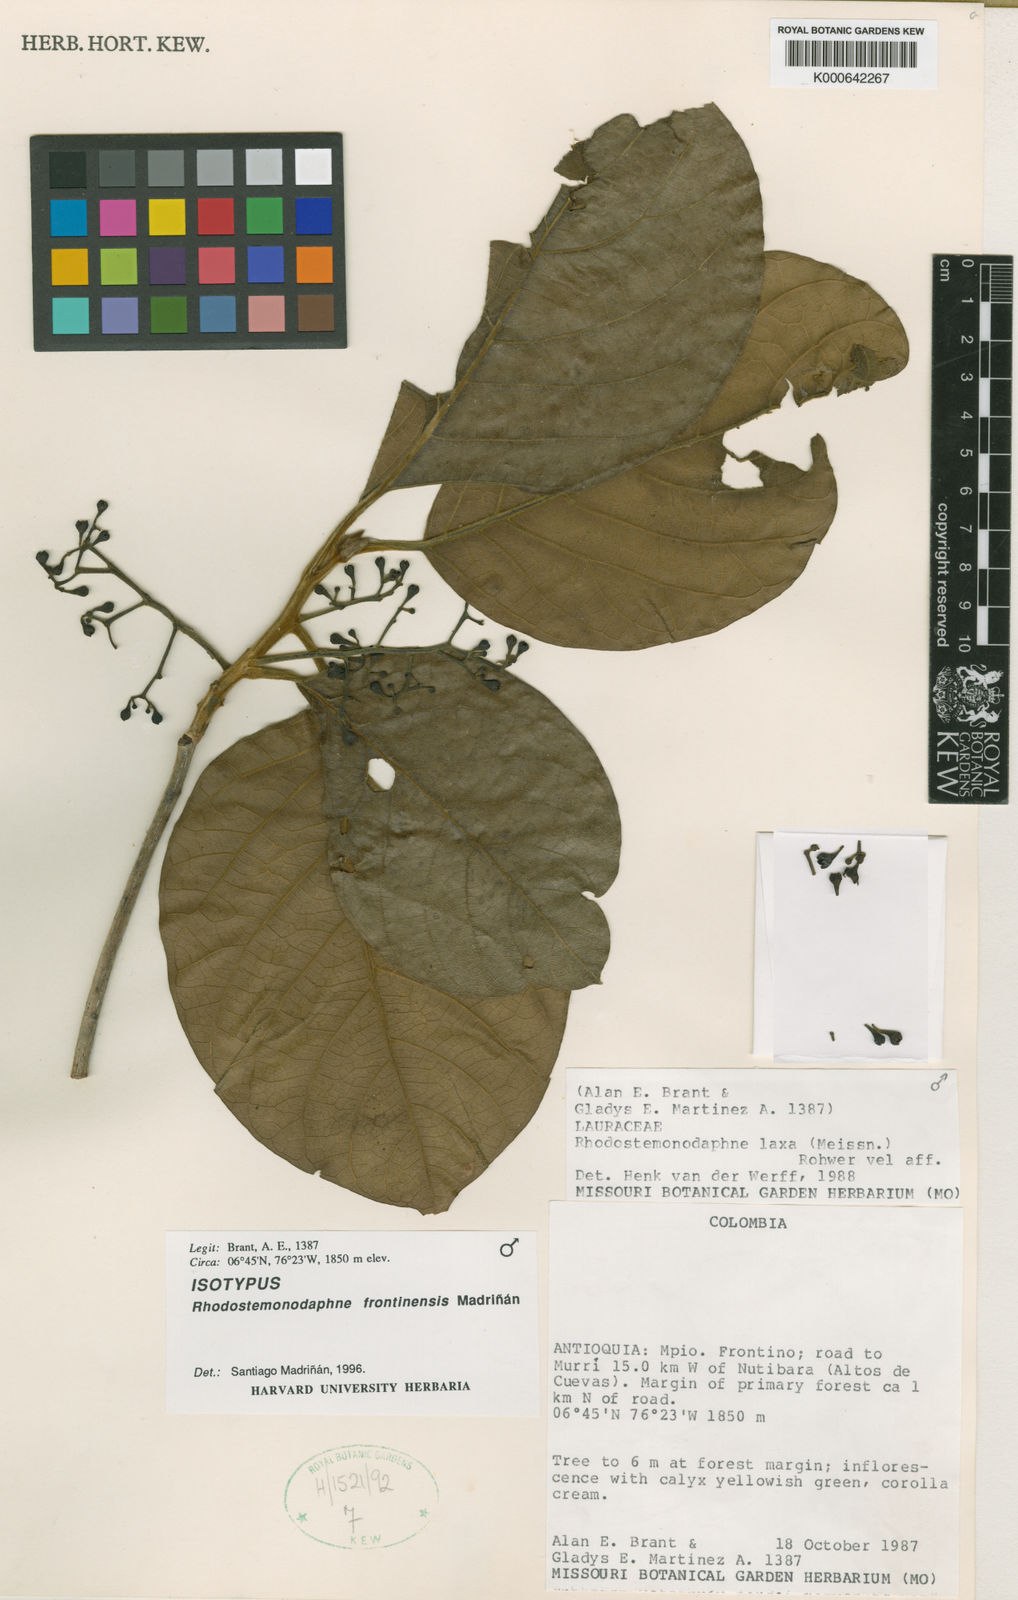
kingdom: Plantae
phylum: Tracheophyta
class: Magnoliopsida
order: Laurales
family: Lauraceae
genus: Rhodostemonodaphne
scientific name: Rhodostemonodaphne
